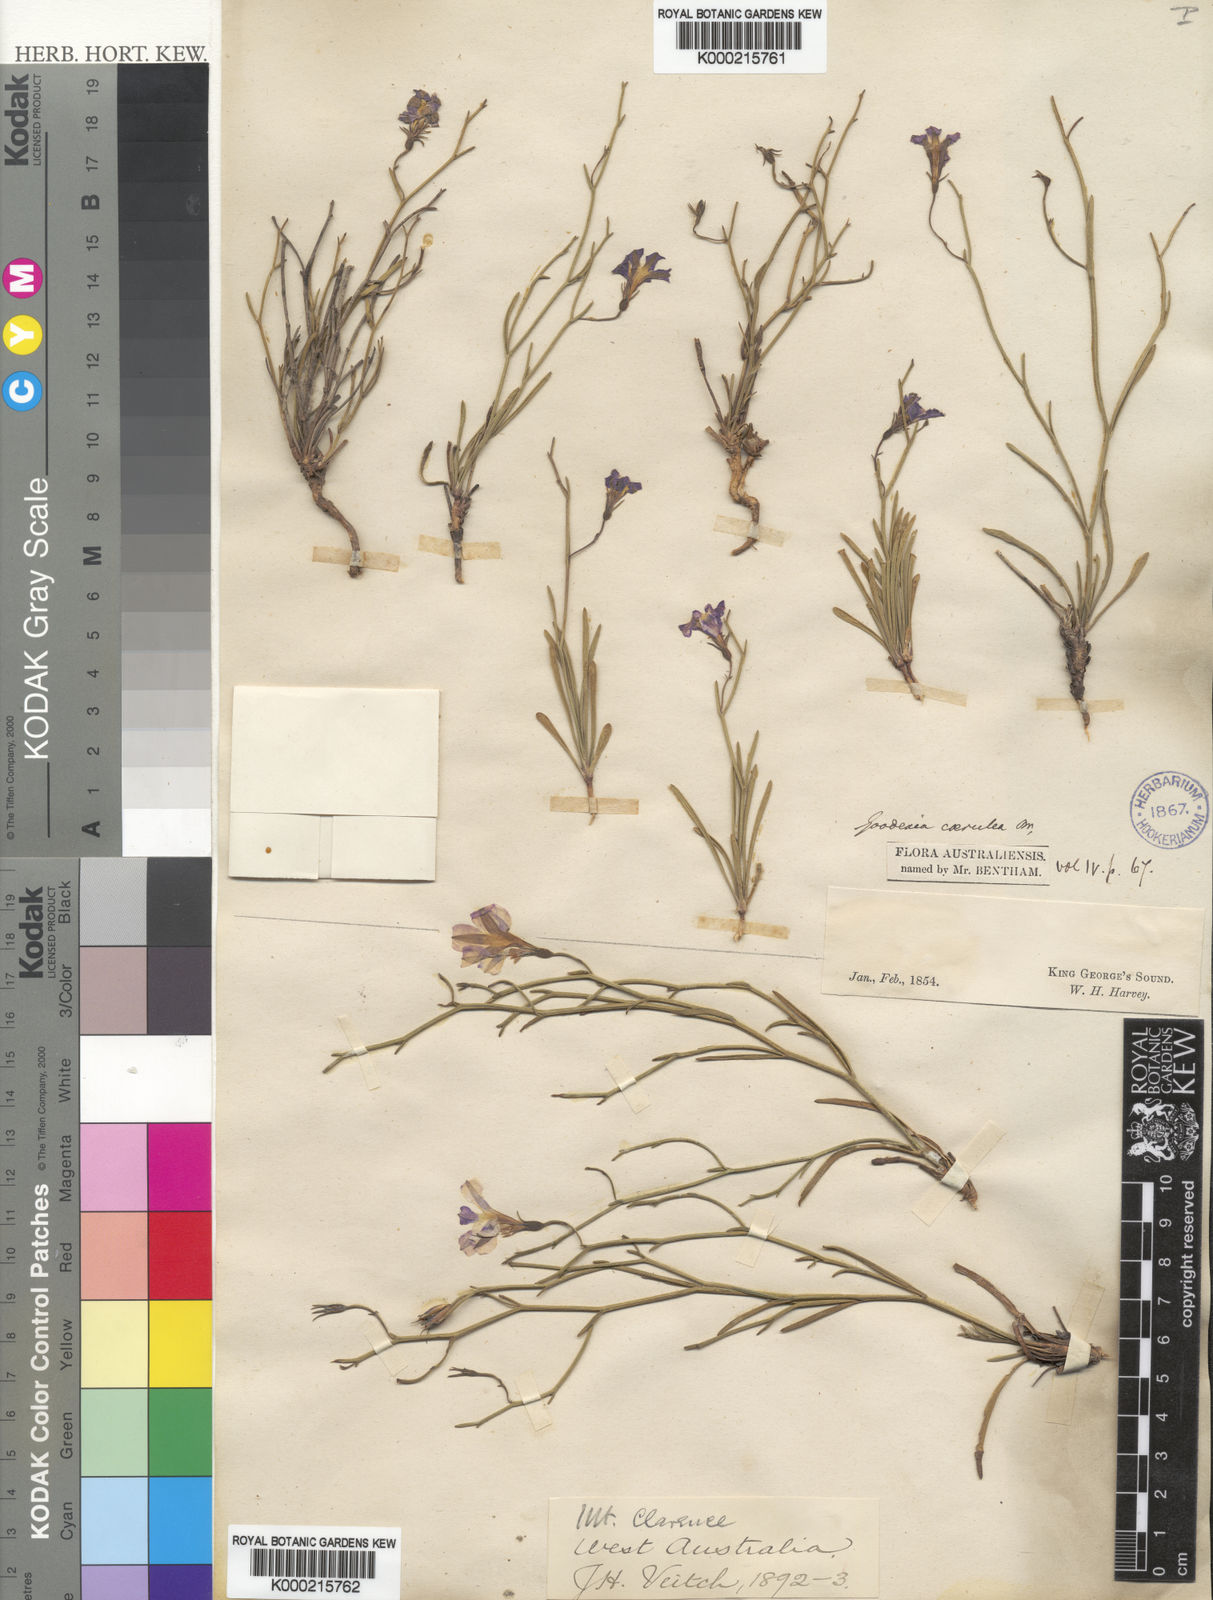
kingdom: Plantae
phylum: Tracheophyta
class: Magnoliopsida
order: Asterales
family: Goodeniaceae
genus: Goodenia
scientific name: Goodenia caerulea
